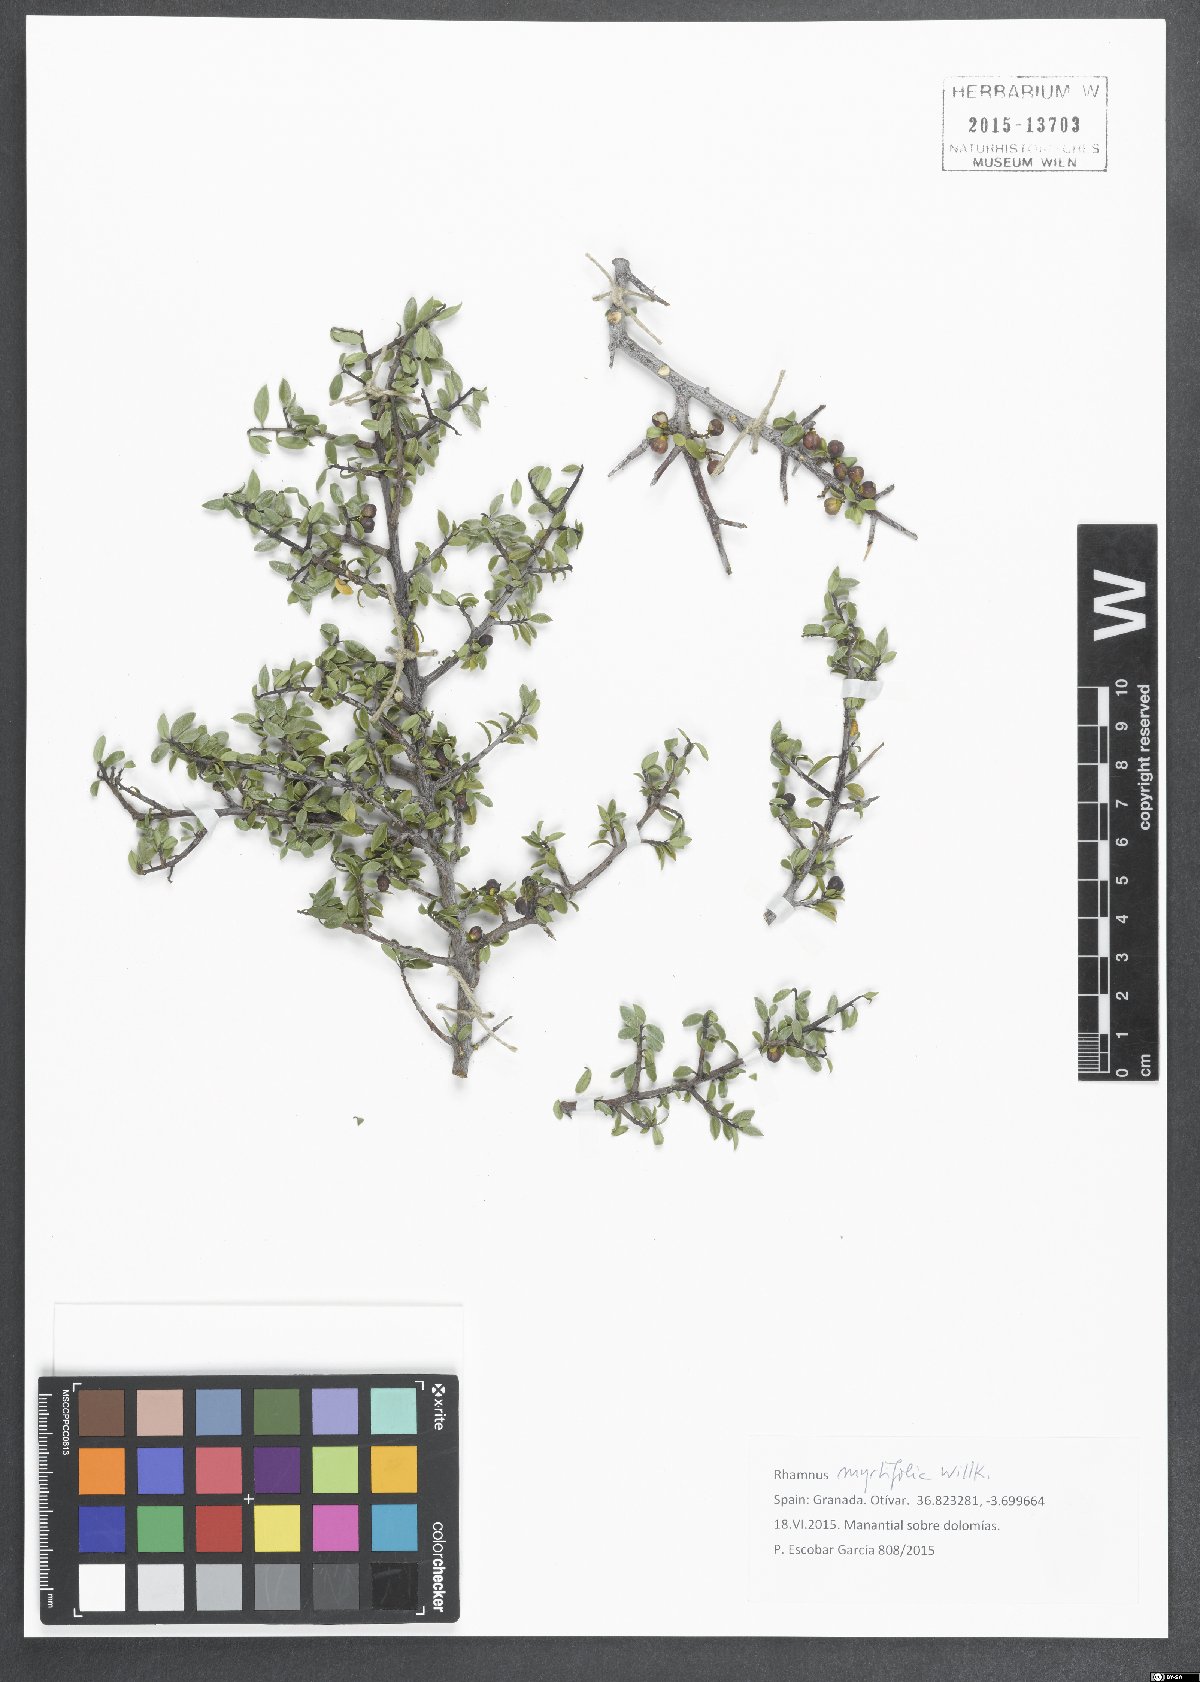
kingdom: Plantae
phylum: Tracheophyta
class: Magnoliopsida
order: Rosales
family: Rhamnaceae
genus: Rhamnus
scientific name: Rhamnus myrtifolia
